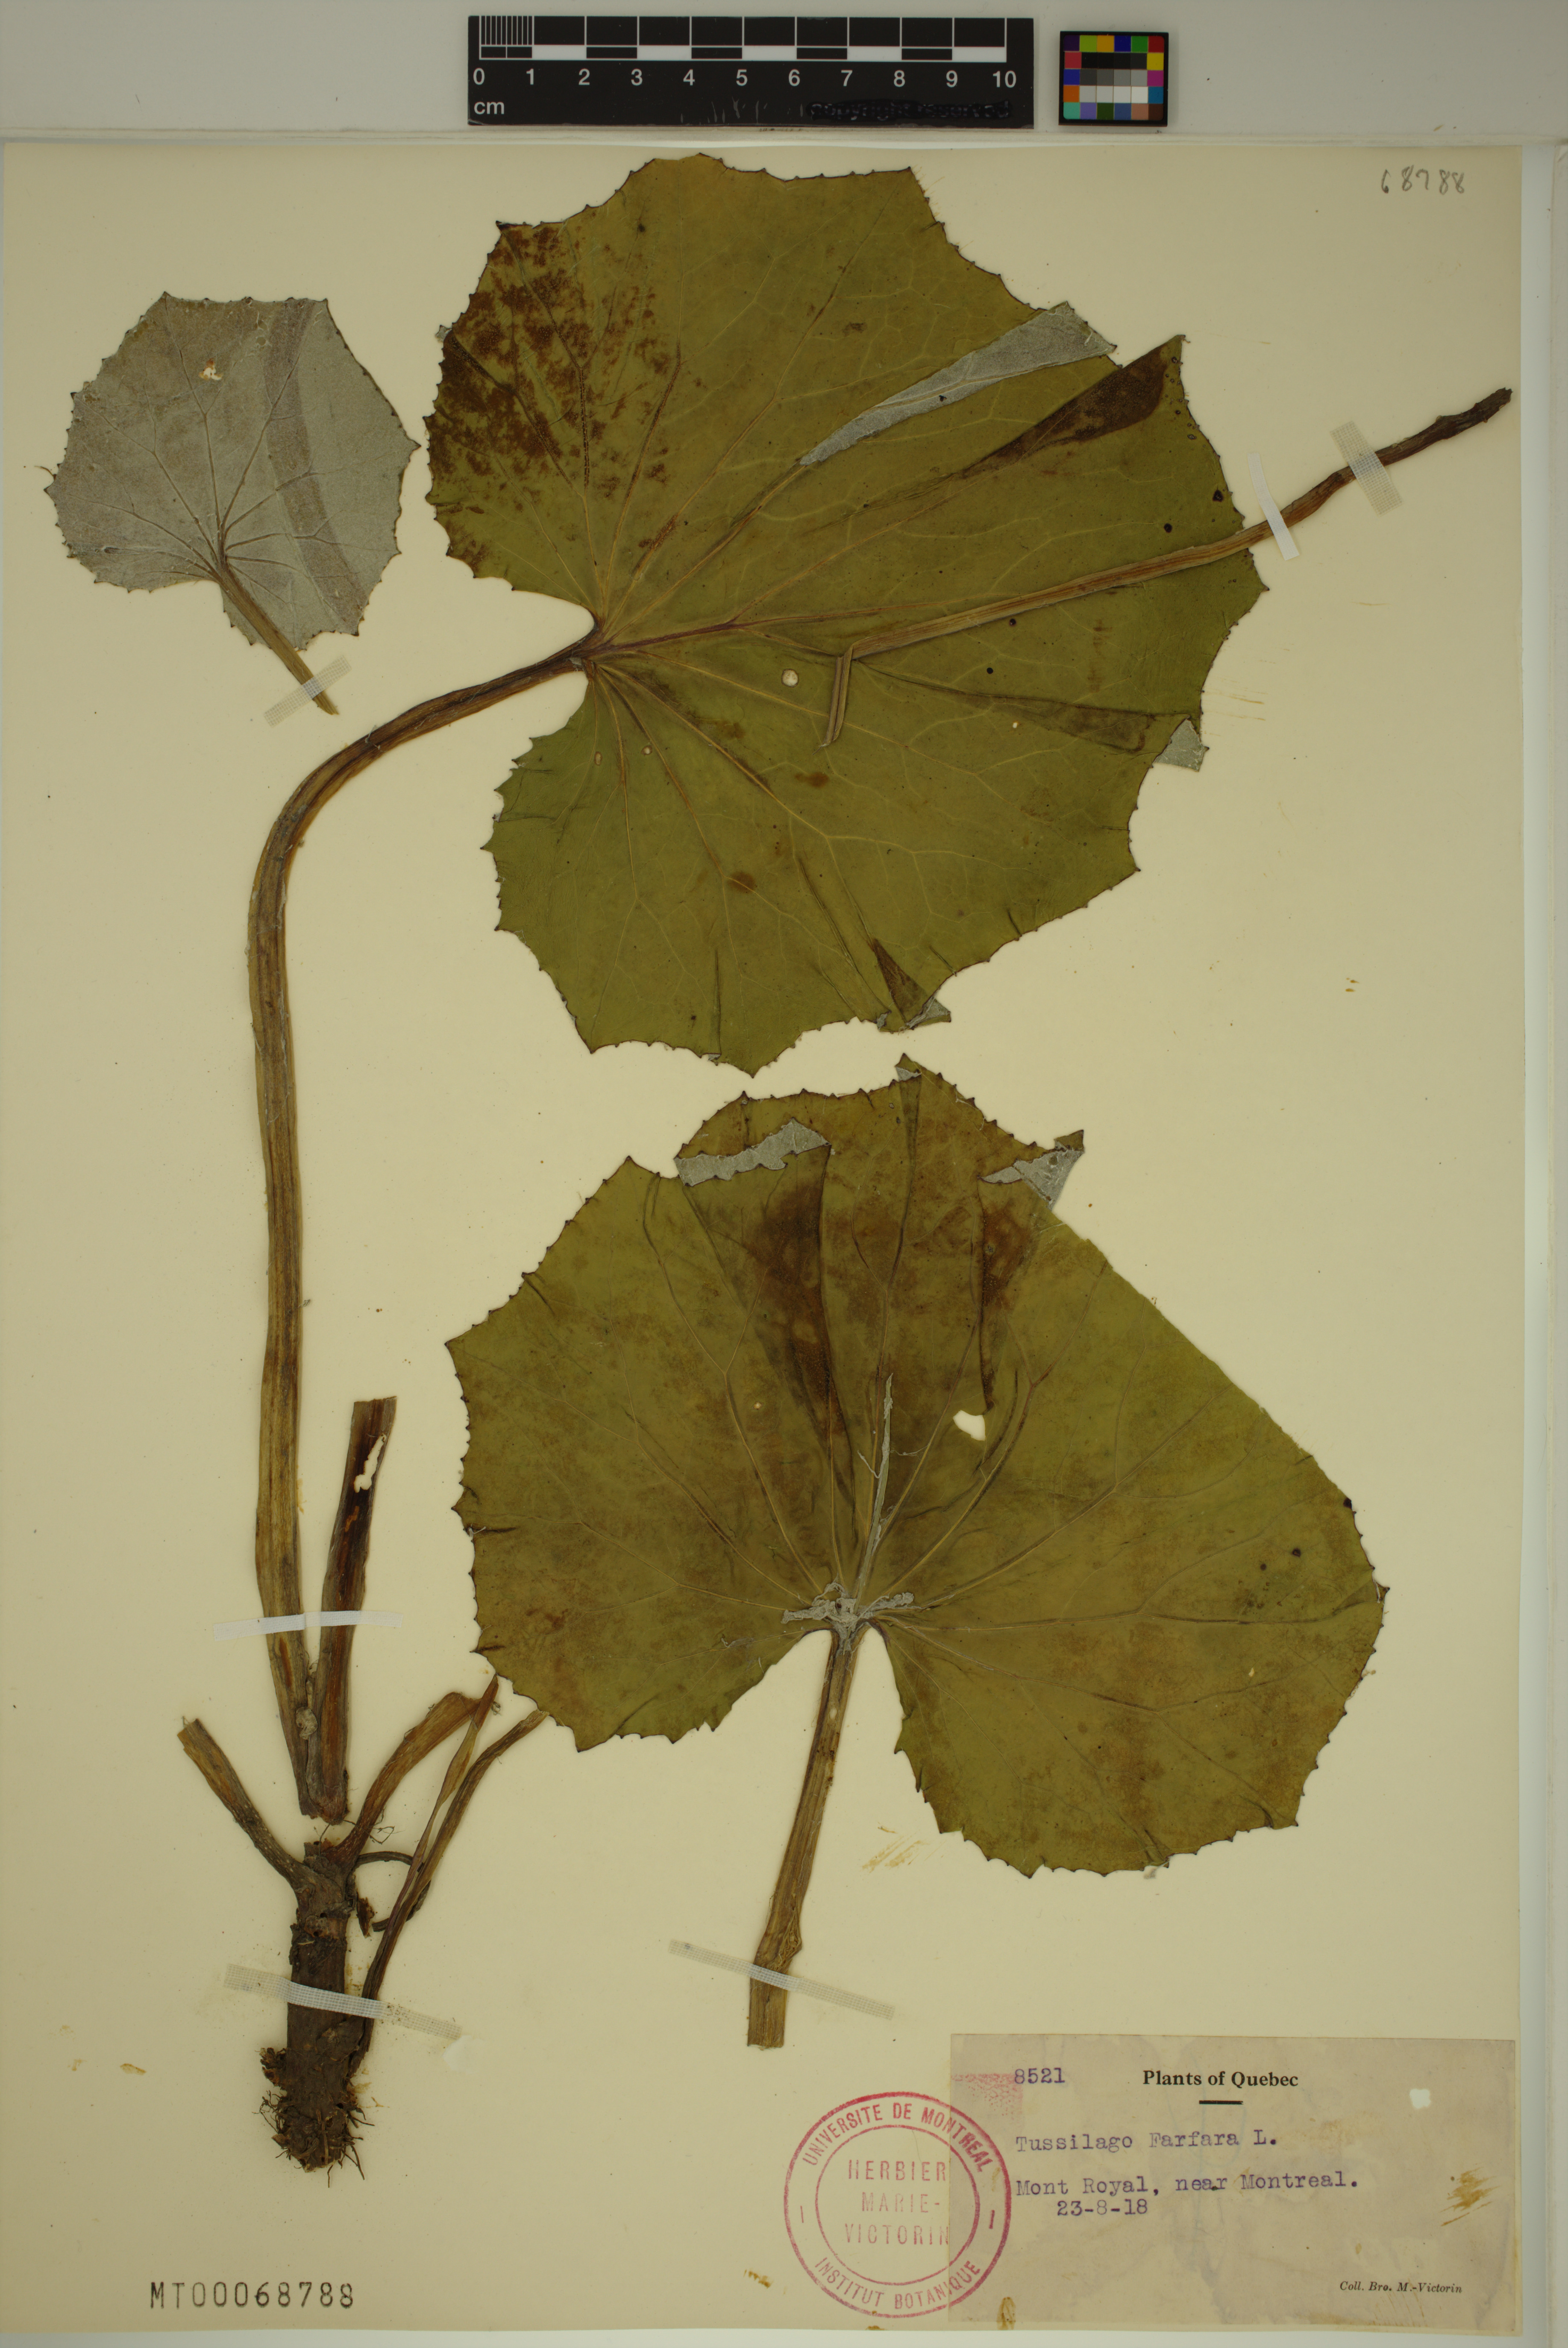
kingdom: Plantae
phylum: Tracheophyta
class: Magnoliopsida
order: Asterales
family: Asteraceae
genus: Tussilago
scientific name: Tussilago farfara
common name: Coltsfoot
